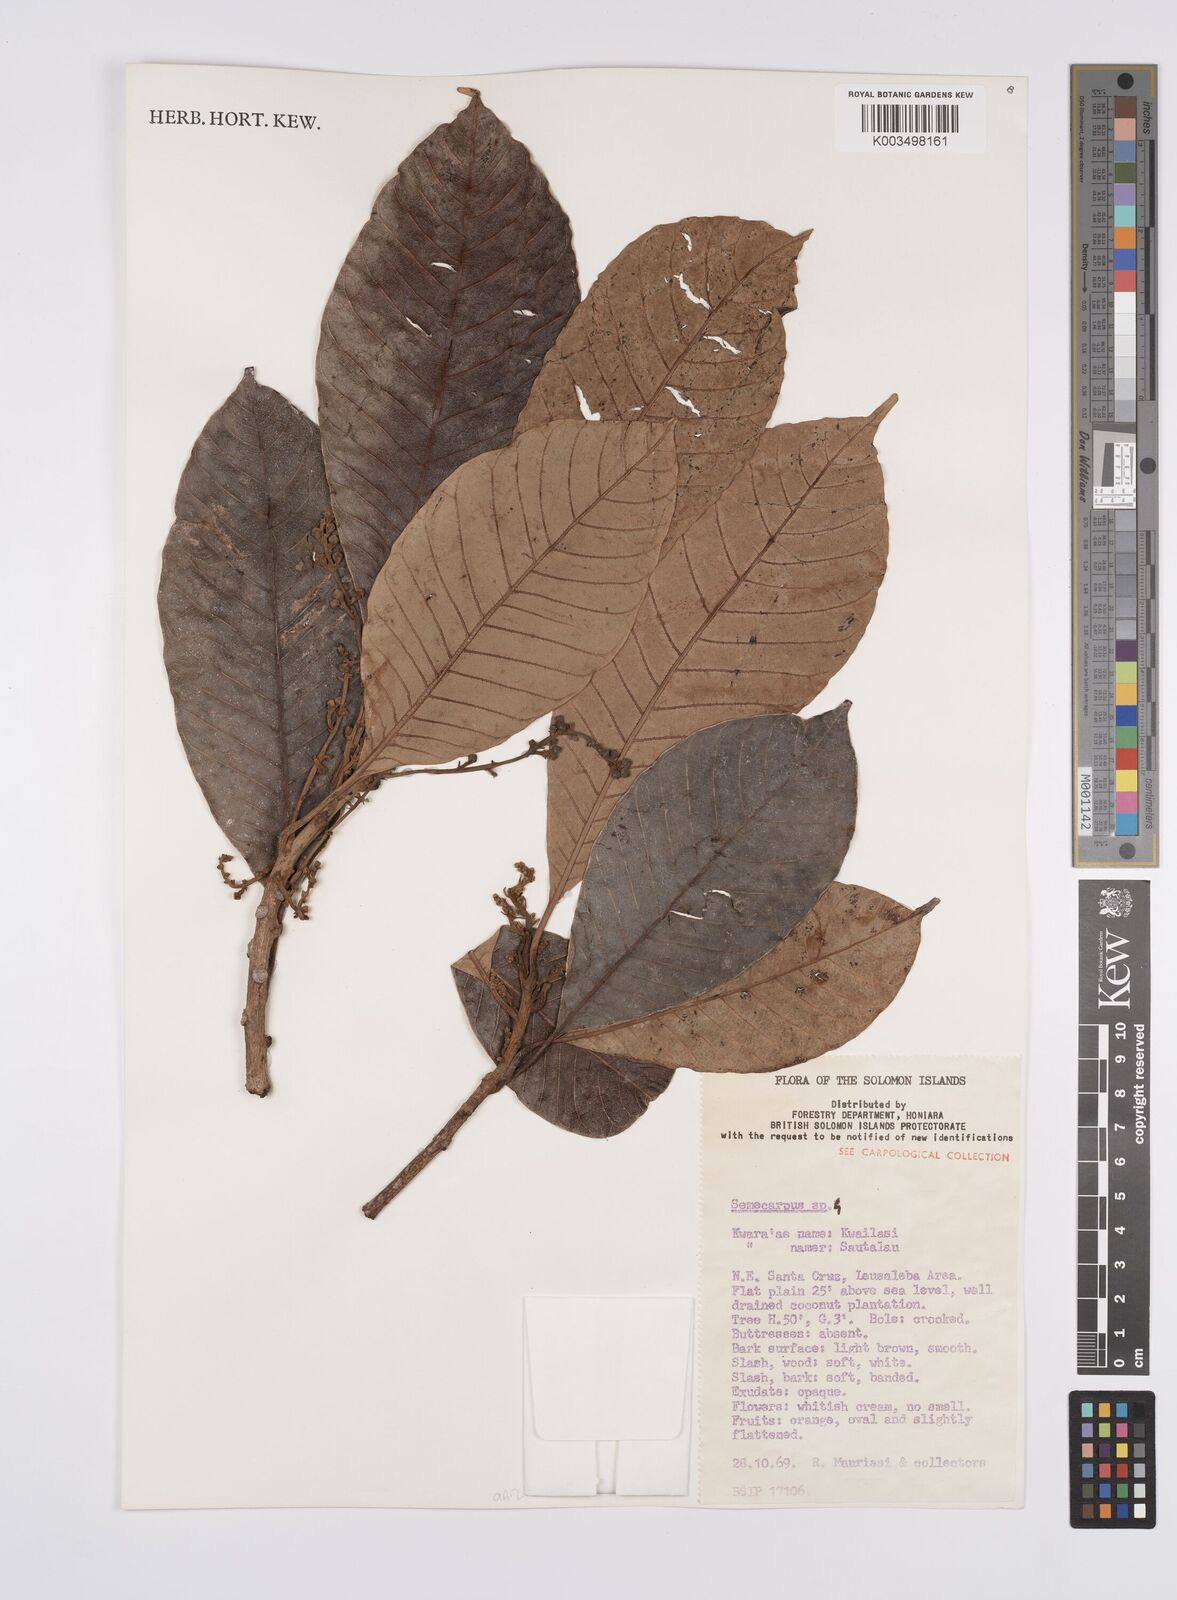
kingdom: Plantae
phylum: Tracheophyta
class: Magnoliopsida
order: Sapindales
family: Anacardiaceae
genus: Semecarpus
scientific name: Semecarpus
